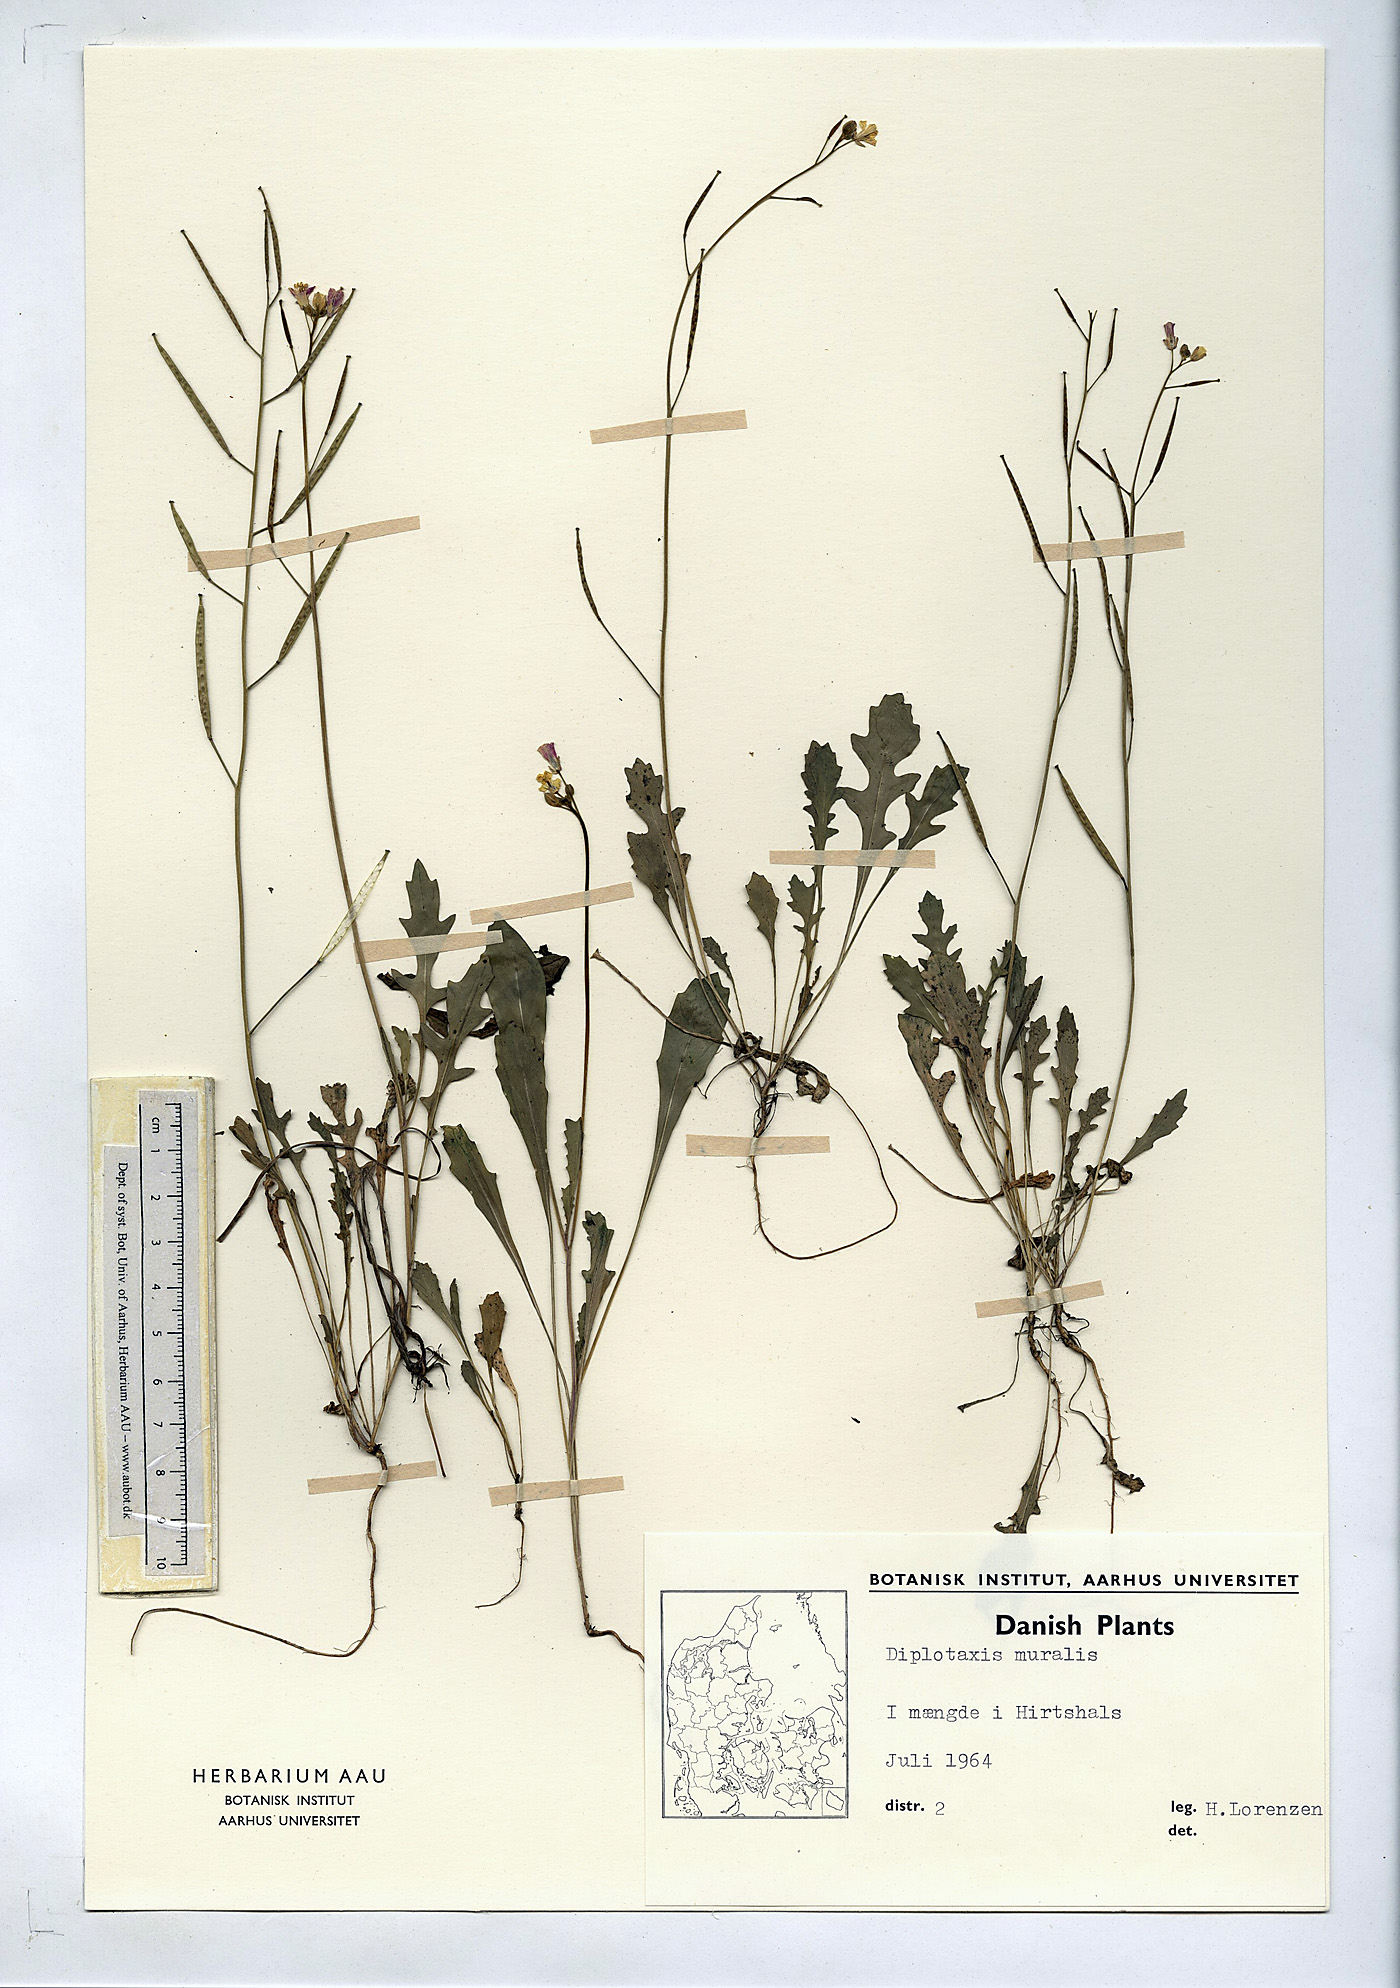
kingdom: Plantae
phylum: Tracheophyta
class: Magnoliopsida
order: Brassicales
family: Brassicaceae
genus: Diplotaxis
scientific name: Diplotaxis muralis
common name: Annual wall-rocket
